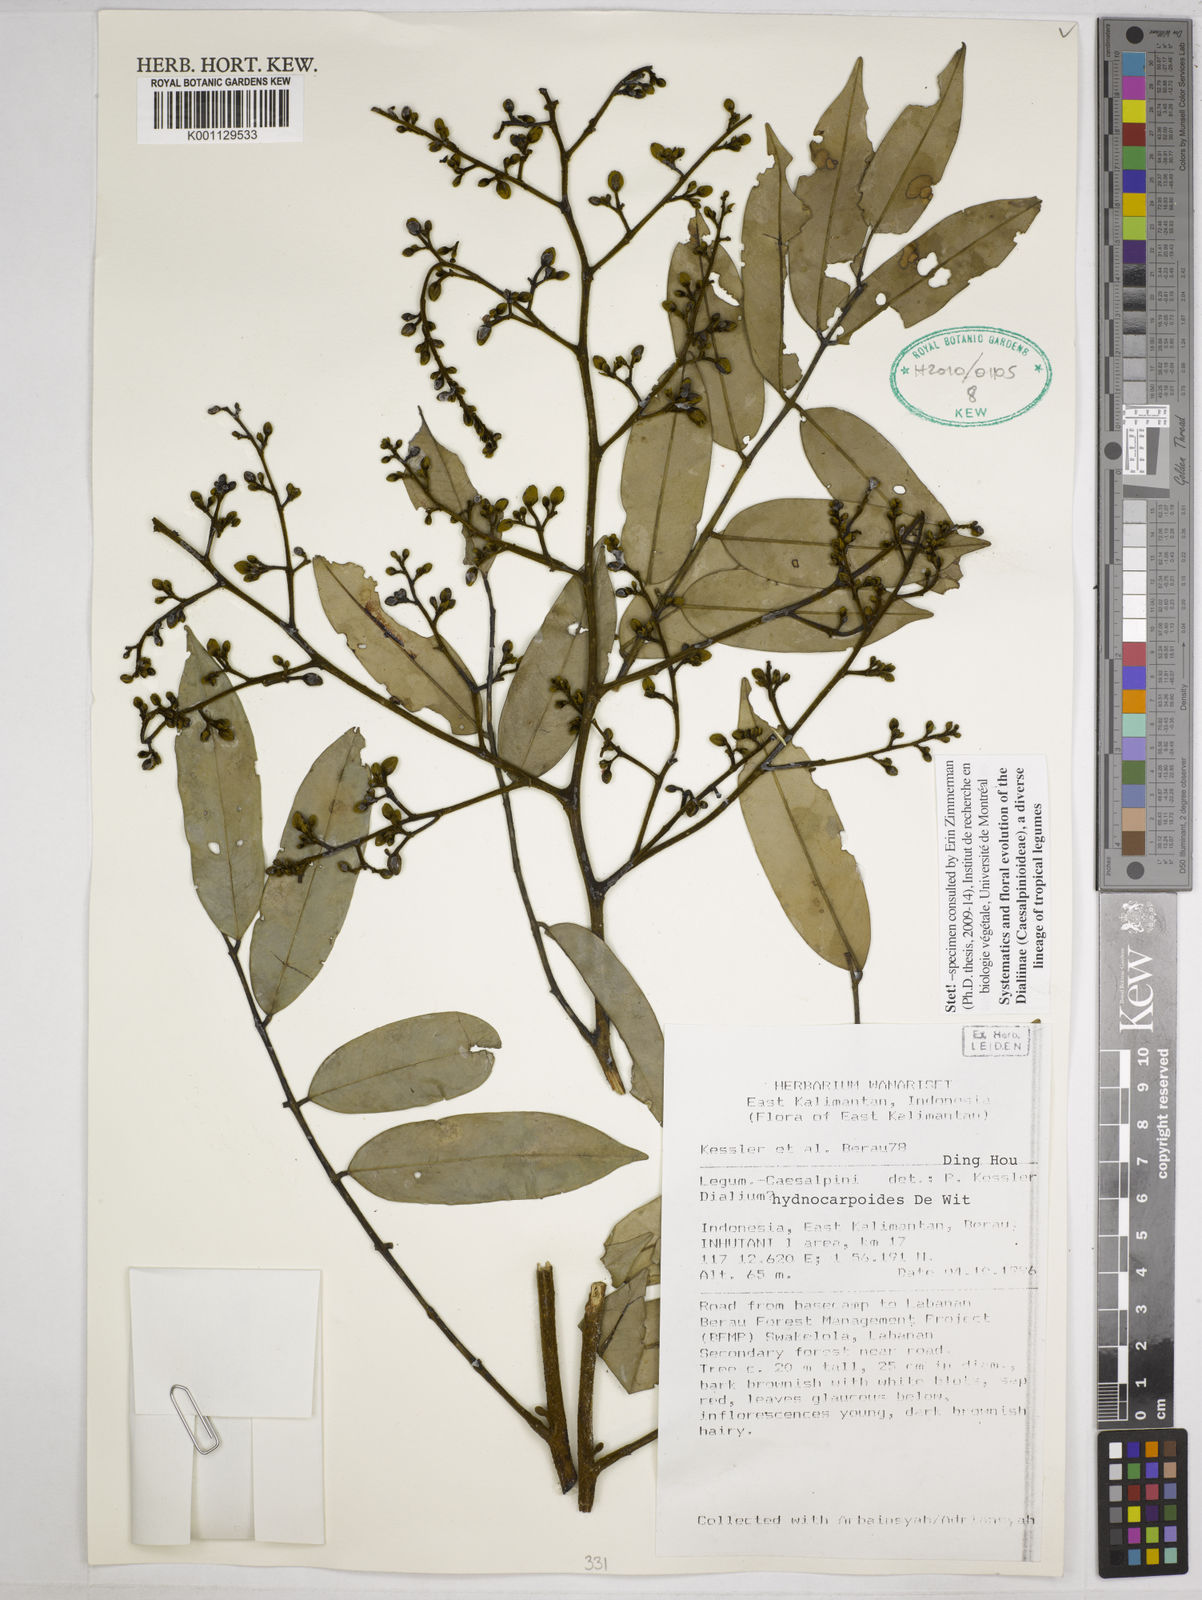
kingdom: Plantae
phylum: Tracheophyta
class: Magnoliopsida
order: Fabales
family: Fabaceae
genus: Dialium
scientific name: Dialium hydnocarpoides
